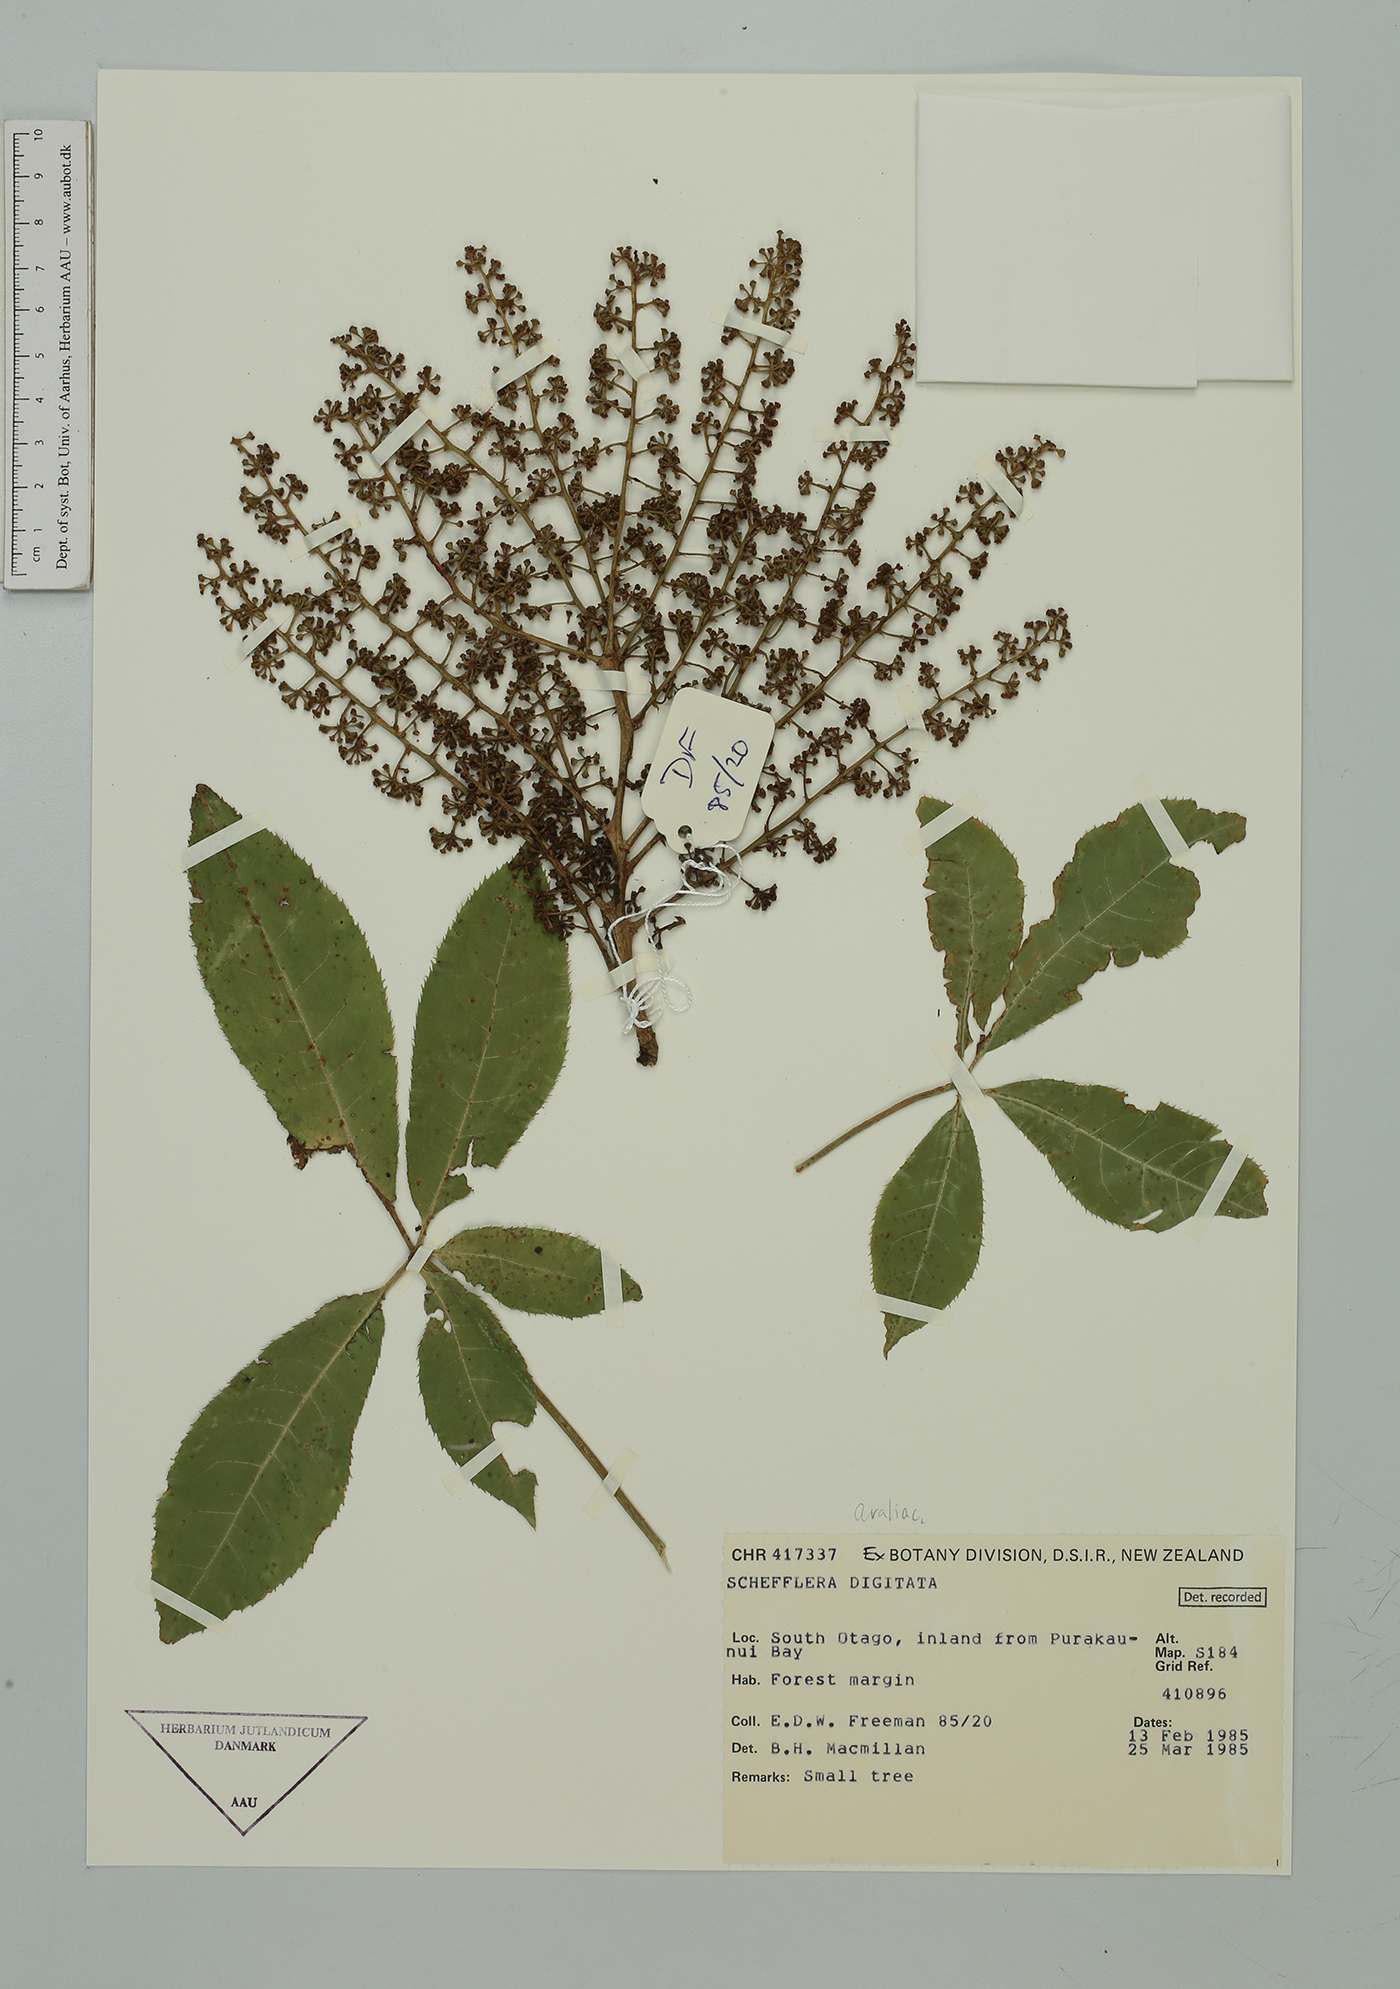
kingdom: Plantae
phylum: Tracheophyta
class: Magnoliopsida
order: Apiales
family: Araliaceae
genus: Schefflera
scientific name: Schefflera digitata
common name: Pate
